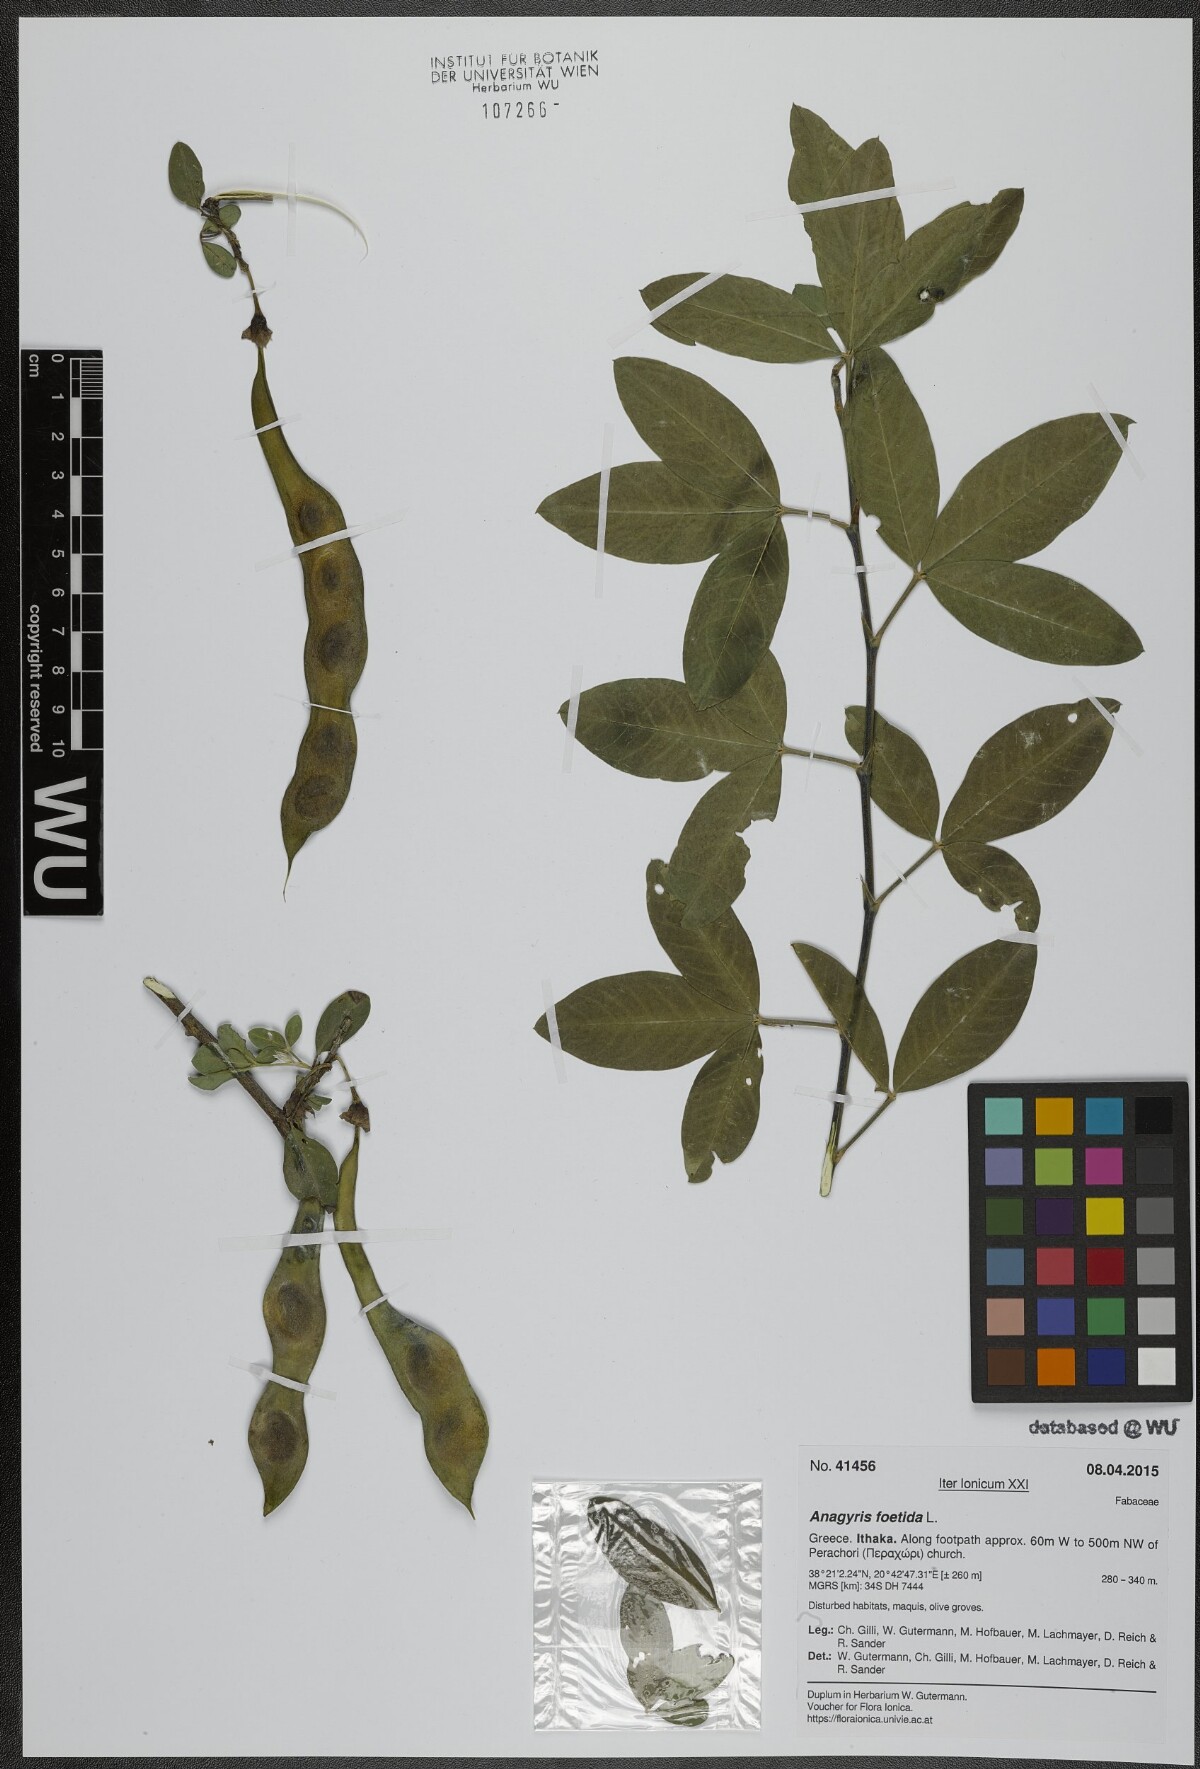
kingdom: Plantae
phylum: Tracheophyta
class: Magnoliopsida
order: Fabales
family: Fabaceae
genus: Anagyris
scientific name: Anagyris foetida
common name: Stinking bean trefoil
